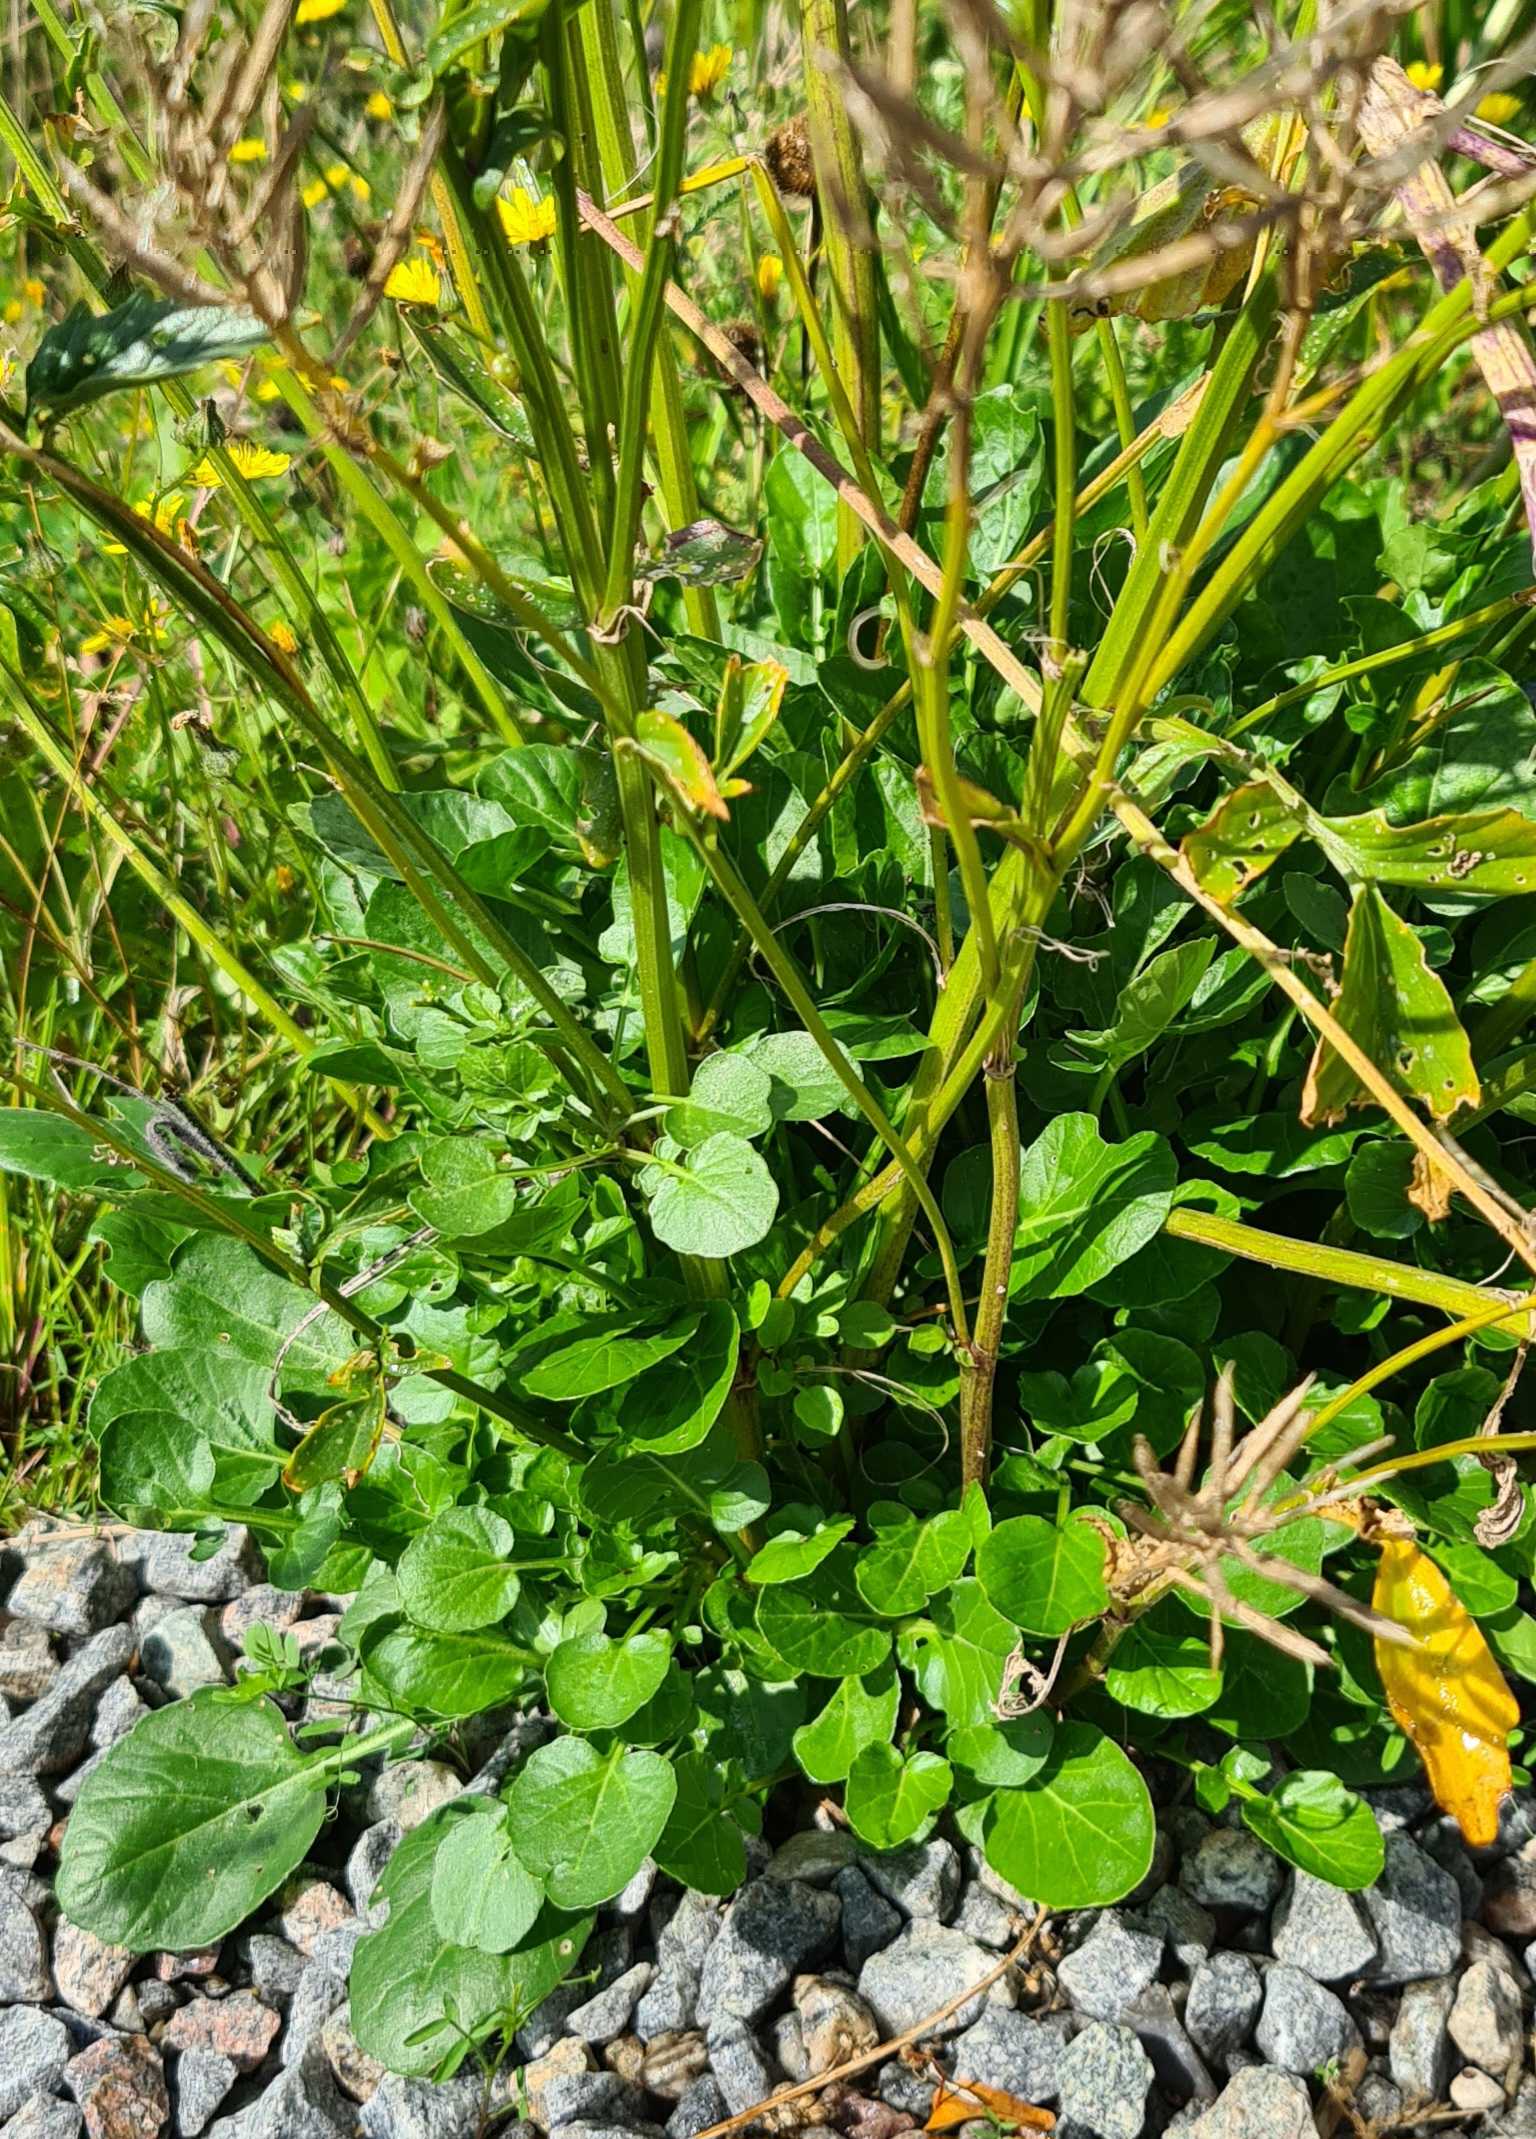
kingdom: Plantae
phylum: Tracheophyta
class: Magnoliopsida
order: Brassicales
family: Brassicaceae
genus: Barbarea
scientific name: Barbarea vulgaris
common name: Udspærret vinterkarse
